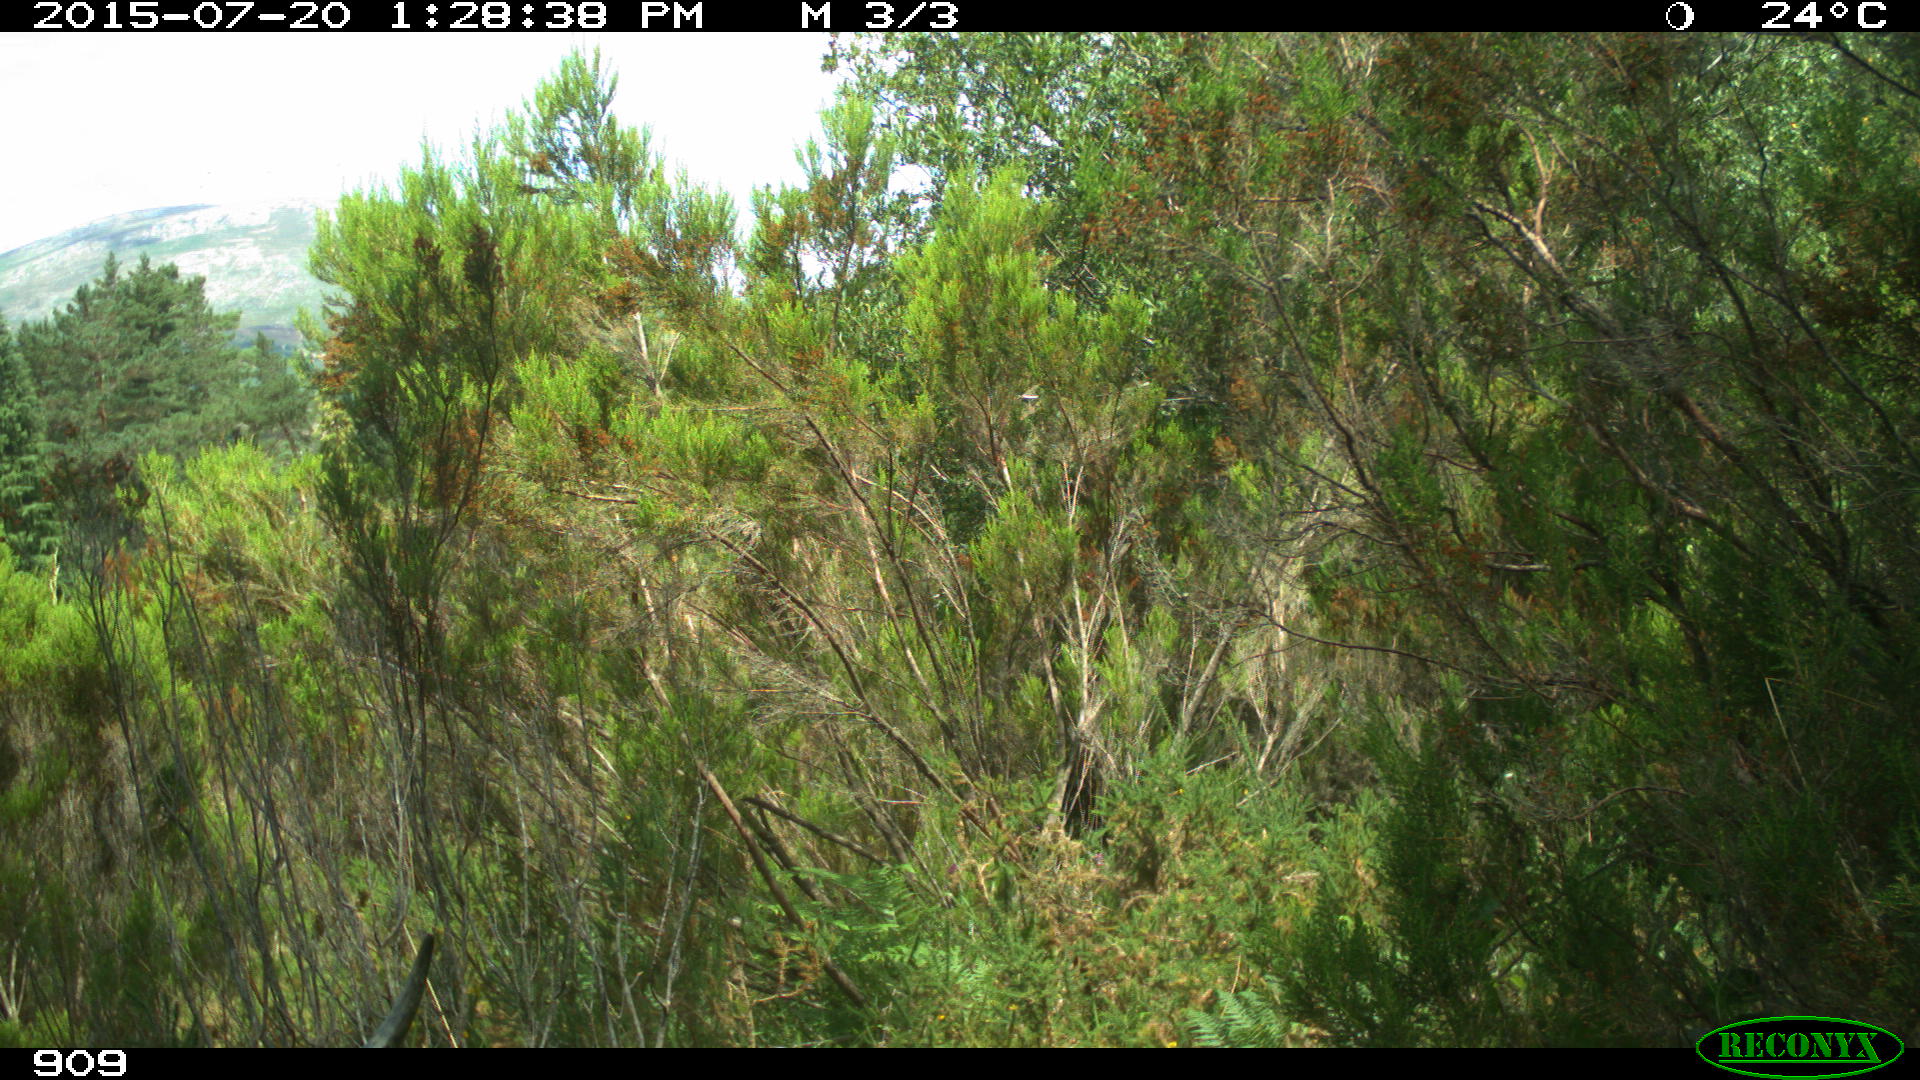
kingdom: Animalia
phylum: Chordata
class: Mammalia
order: Artiodactyla
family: Bovidae
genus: Bos
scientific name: Bos taurus
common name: Domesticated cattle
